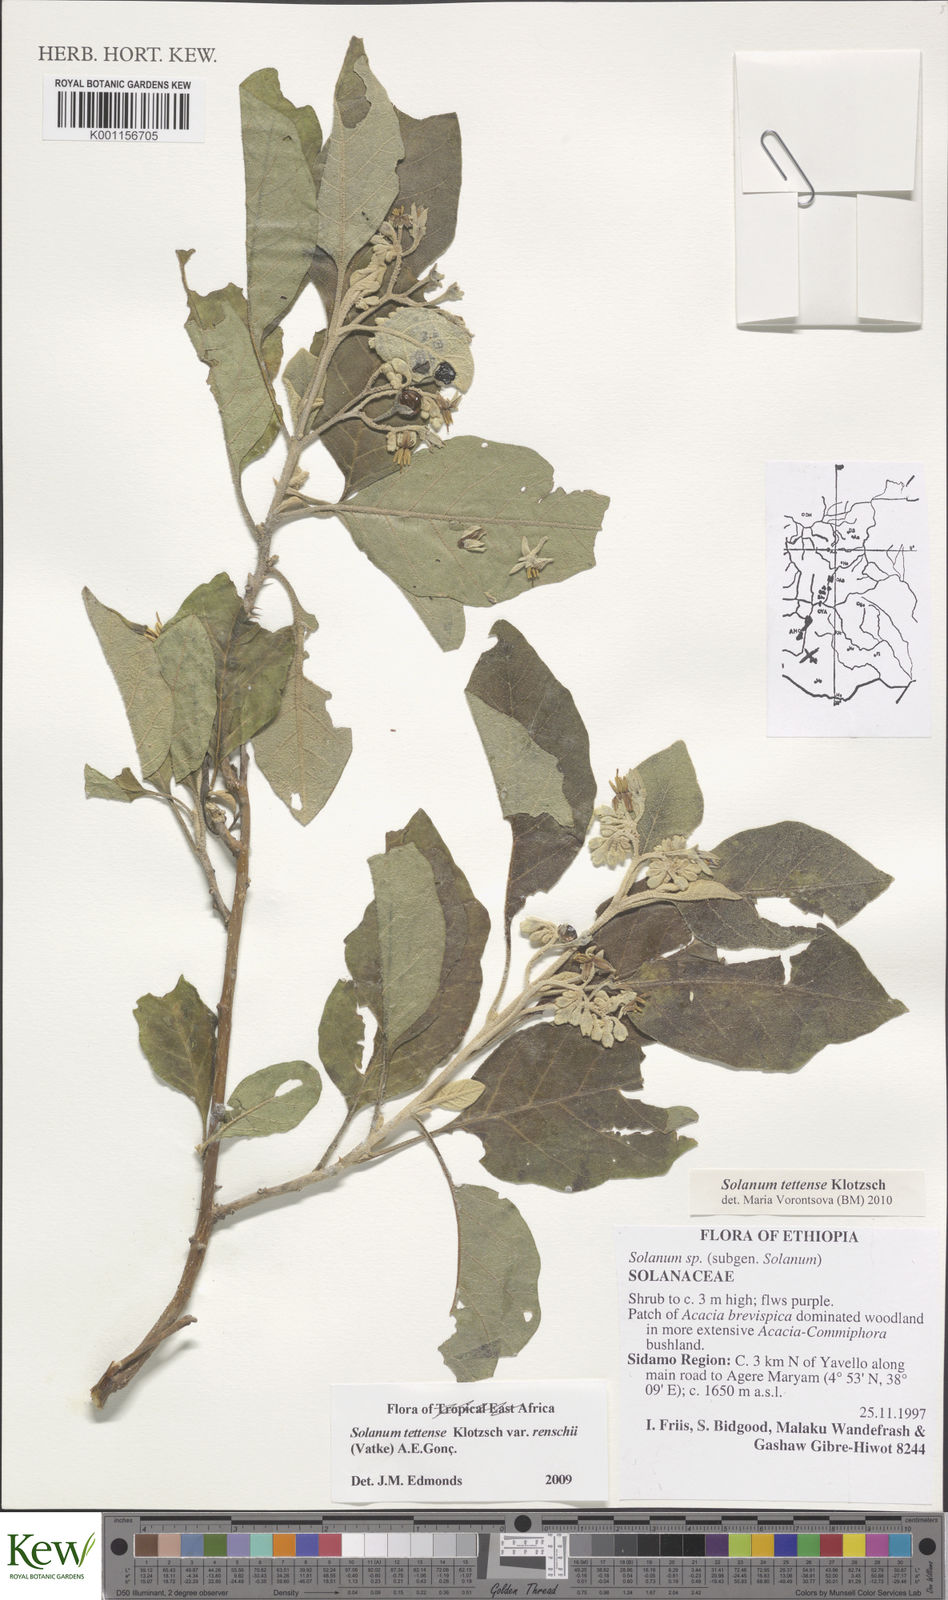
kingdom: Plantae
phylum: Tracheophyta
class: Magnoliopsida
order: Solanales
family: Solanaceae
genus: Solanum
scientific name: Solanum tettense
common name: Mozambique bitter apple
